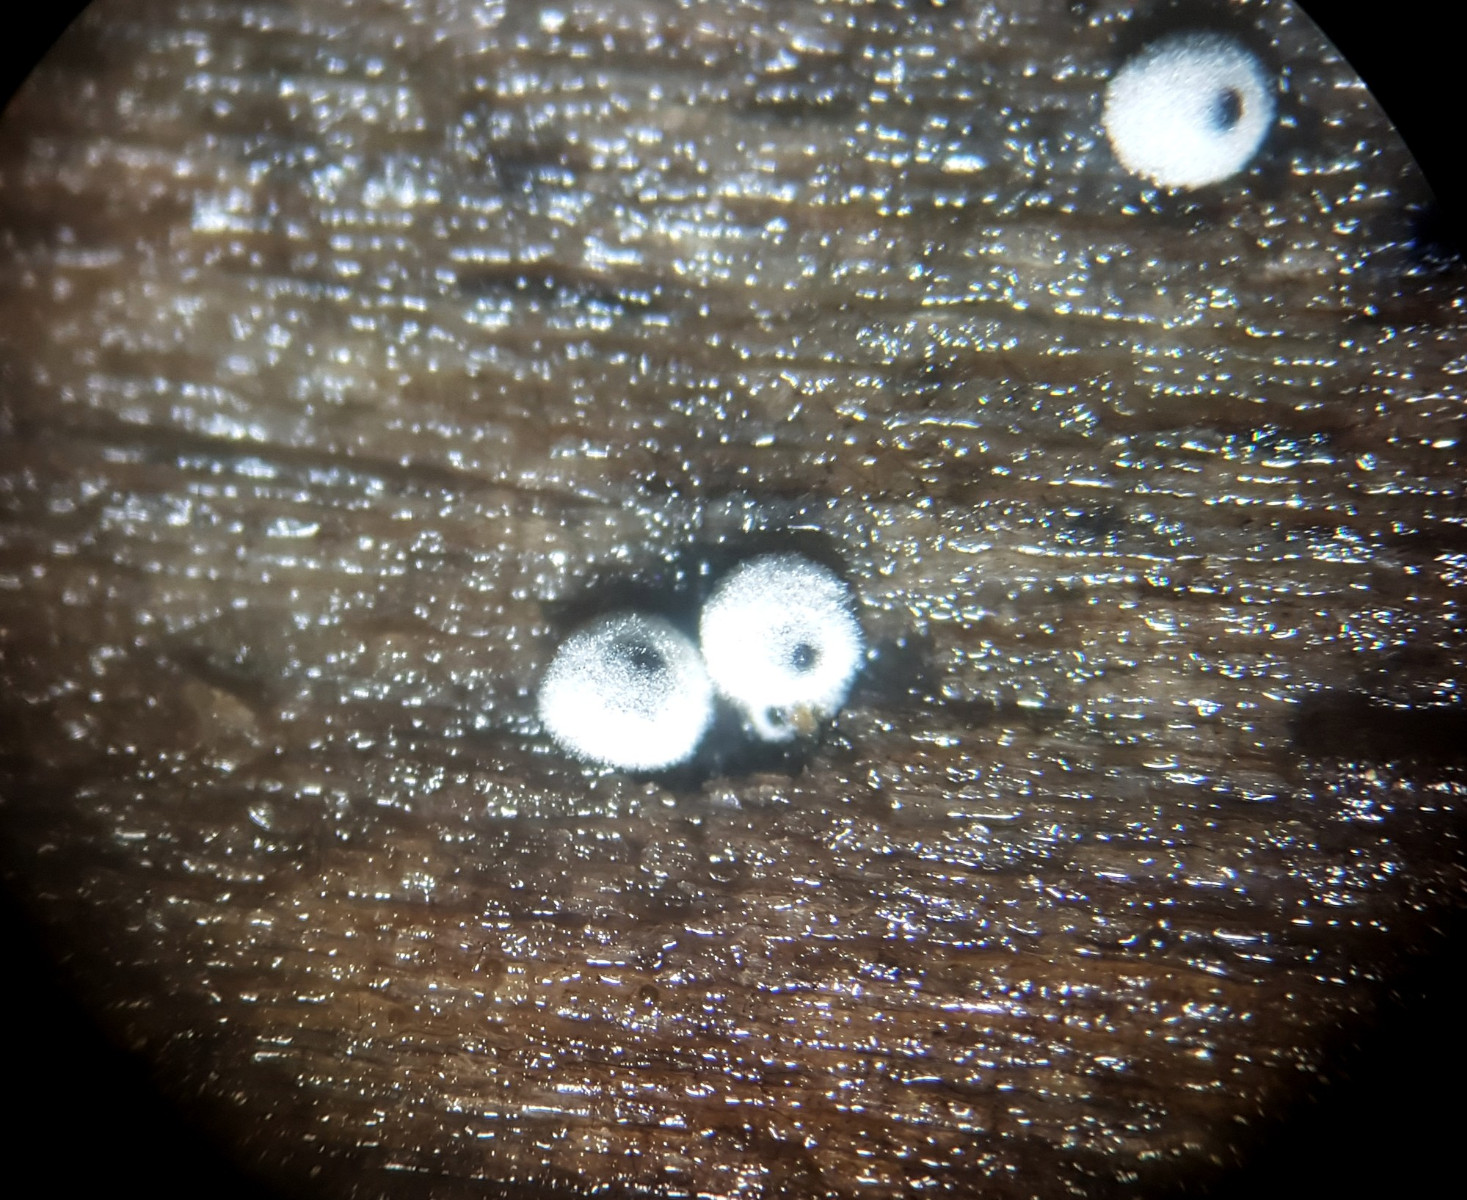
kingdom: Fungi
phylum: Ascomycota
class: Sordariomycetes
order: Sordariales
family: Lasiosphaeriaceae
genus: Lasiosphaeria
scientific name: Lasiosphaeria ovina
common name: fåre-kernesvamp
